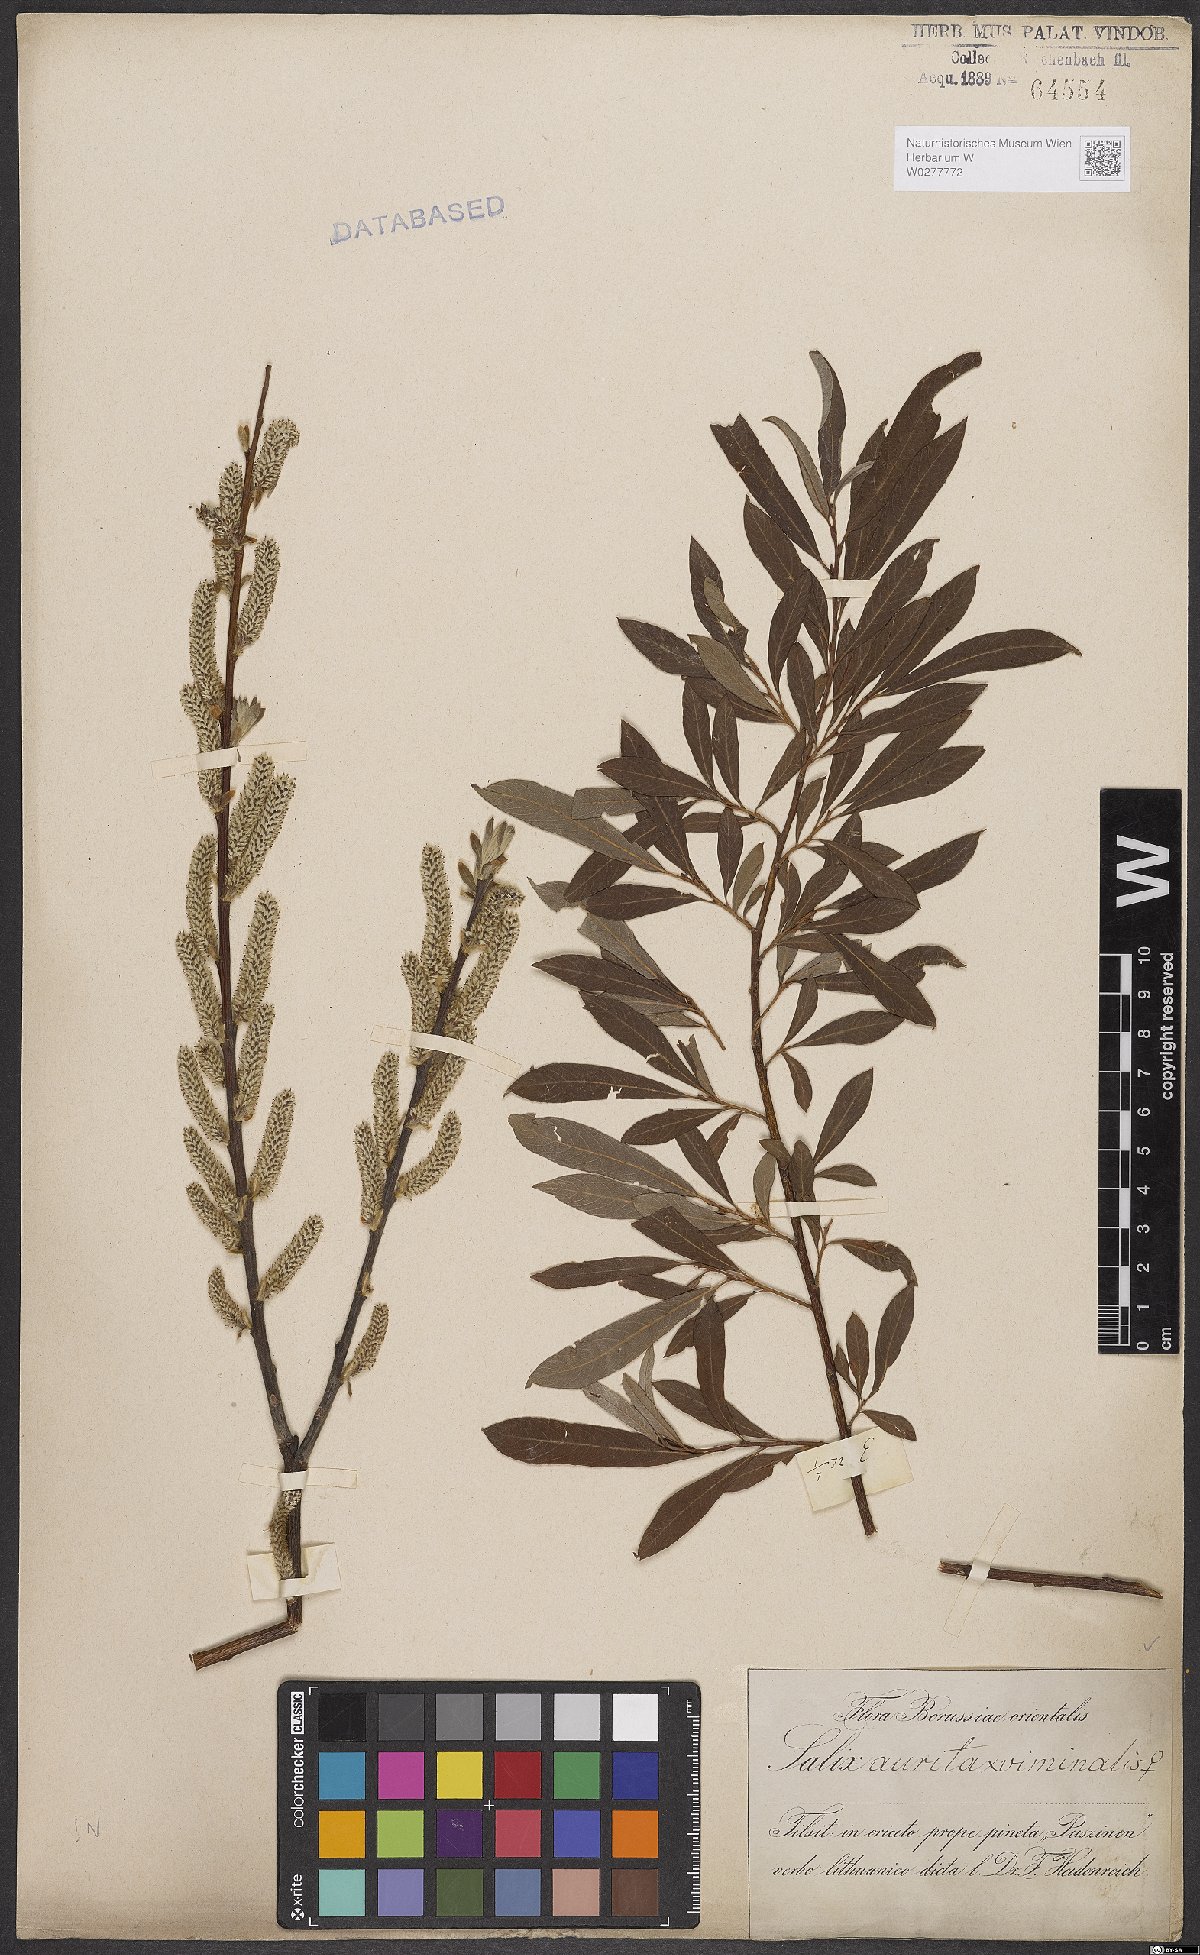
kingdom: Plantae
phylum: Tracheophyta
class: Magnoliopsida
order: Malpighiales
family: Salicaceae
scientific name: Salicaceae
